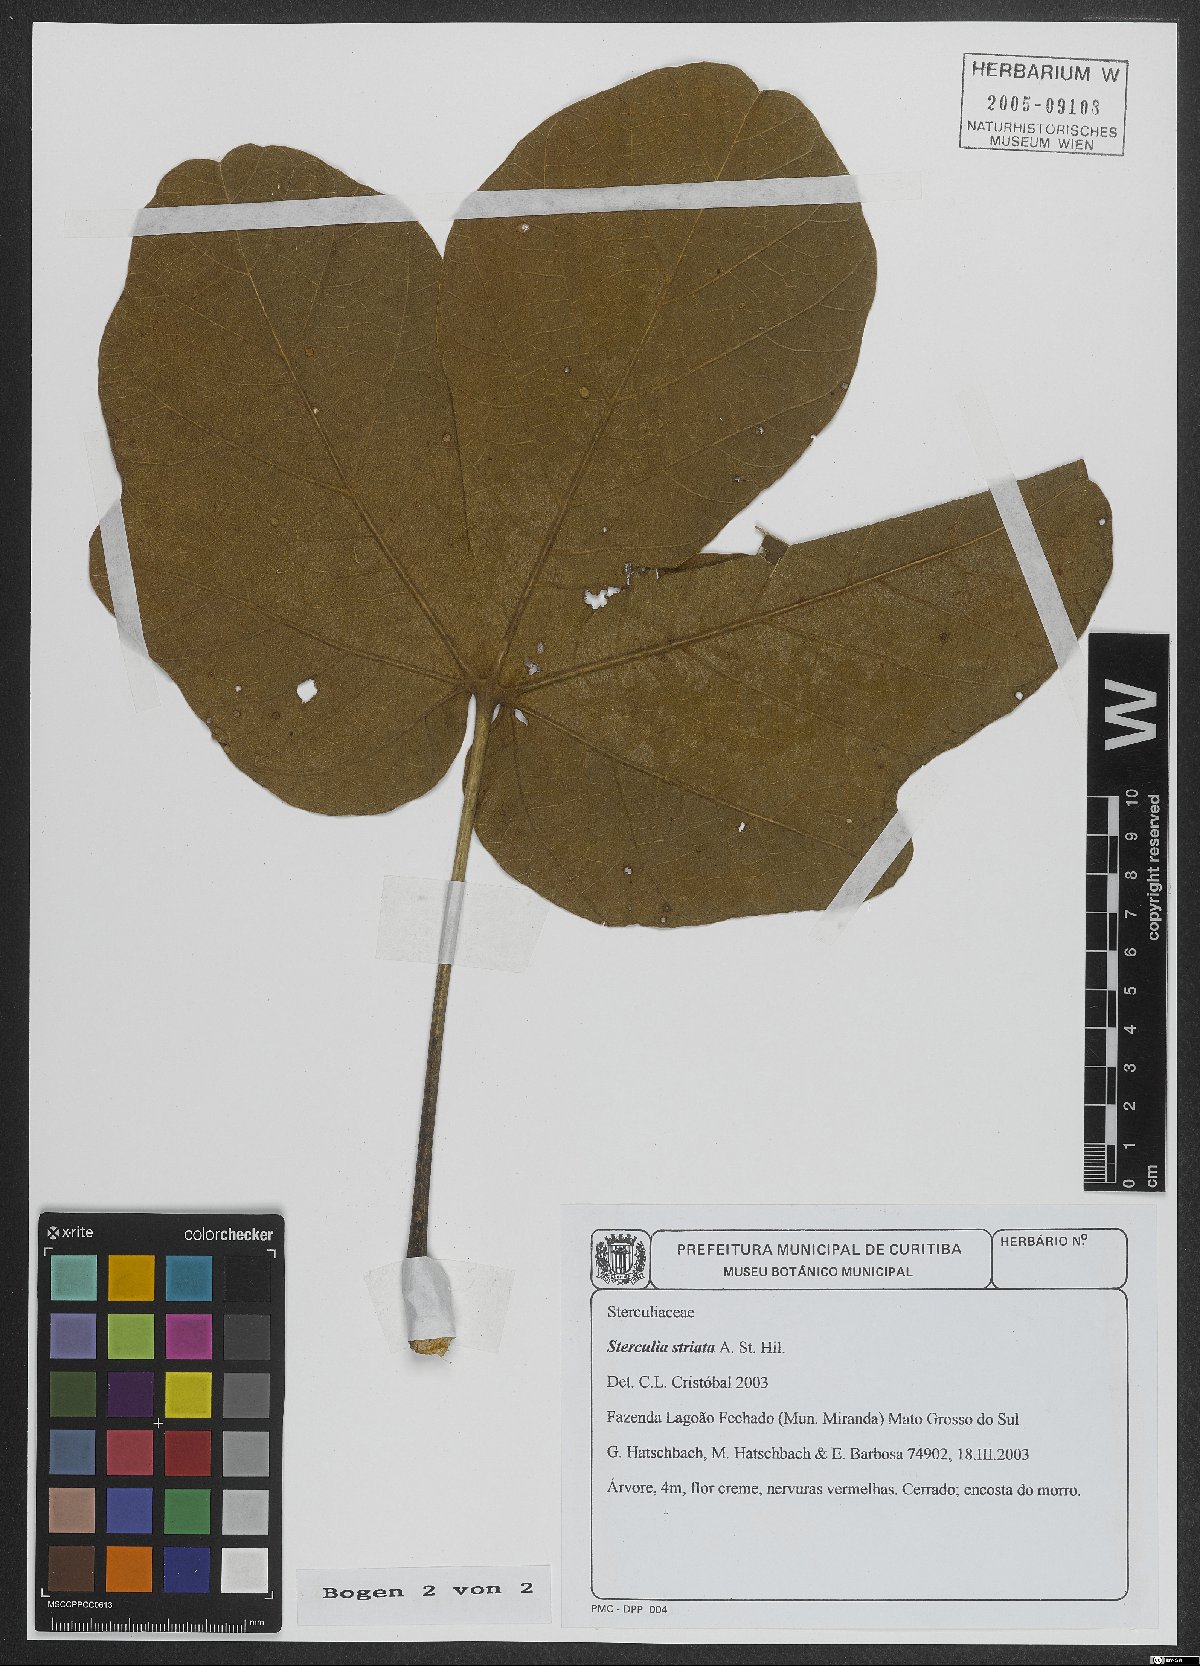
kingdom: Plantae
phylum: Tracheophyta
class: Magnoliopsida
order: Malvales
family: Malvaceae
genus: Sterculia
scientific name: Sterculia striata
